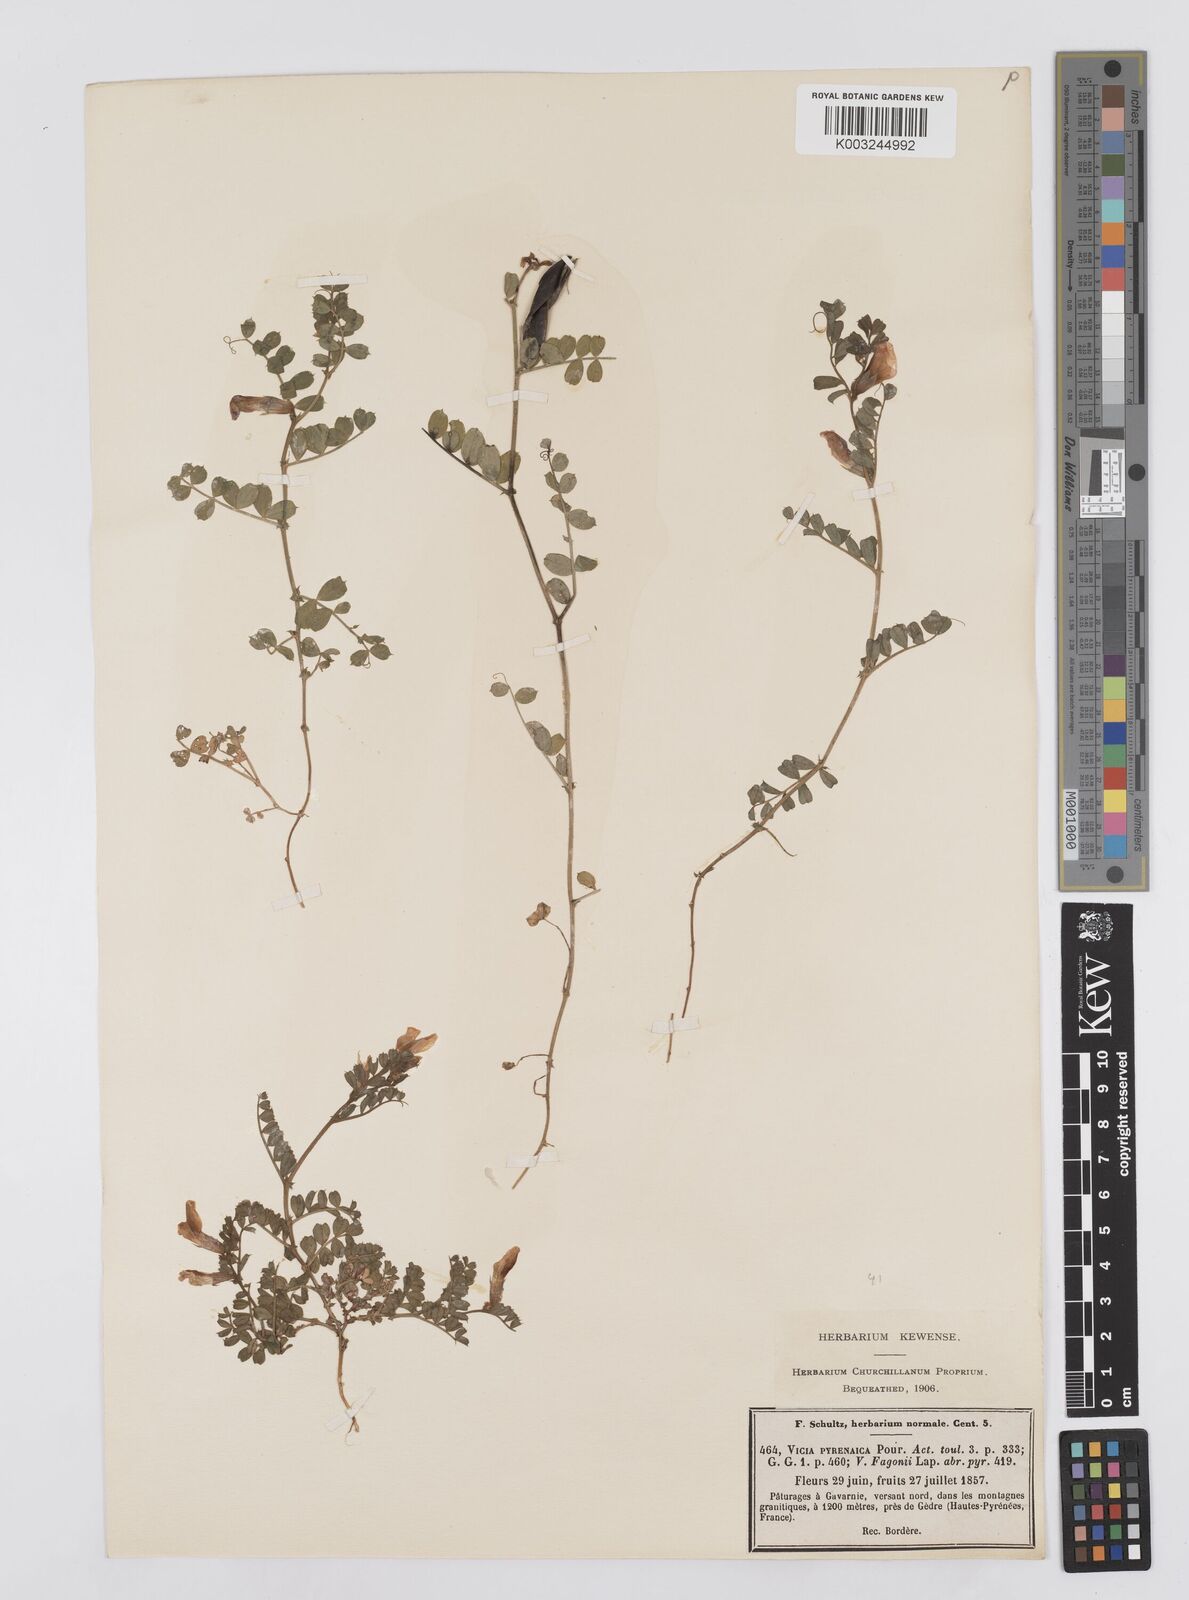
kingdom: Plantae
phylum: Tracheophyta
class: Magnoliopsida
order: Fabales
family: Fabaceae
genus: Vicia
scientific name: Vicia pyrenaica
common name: Pyrenean vetch
